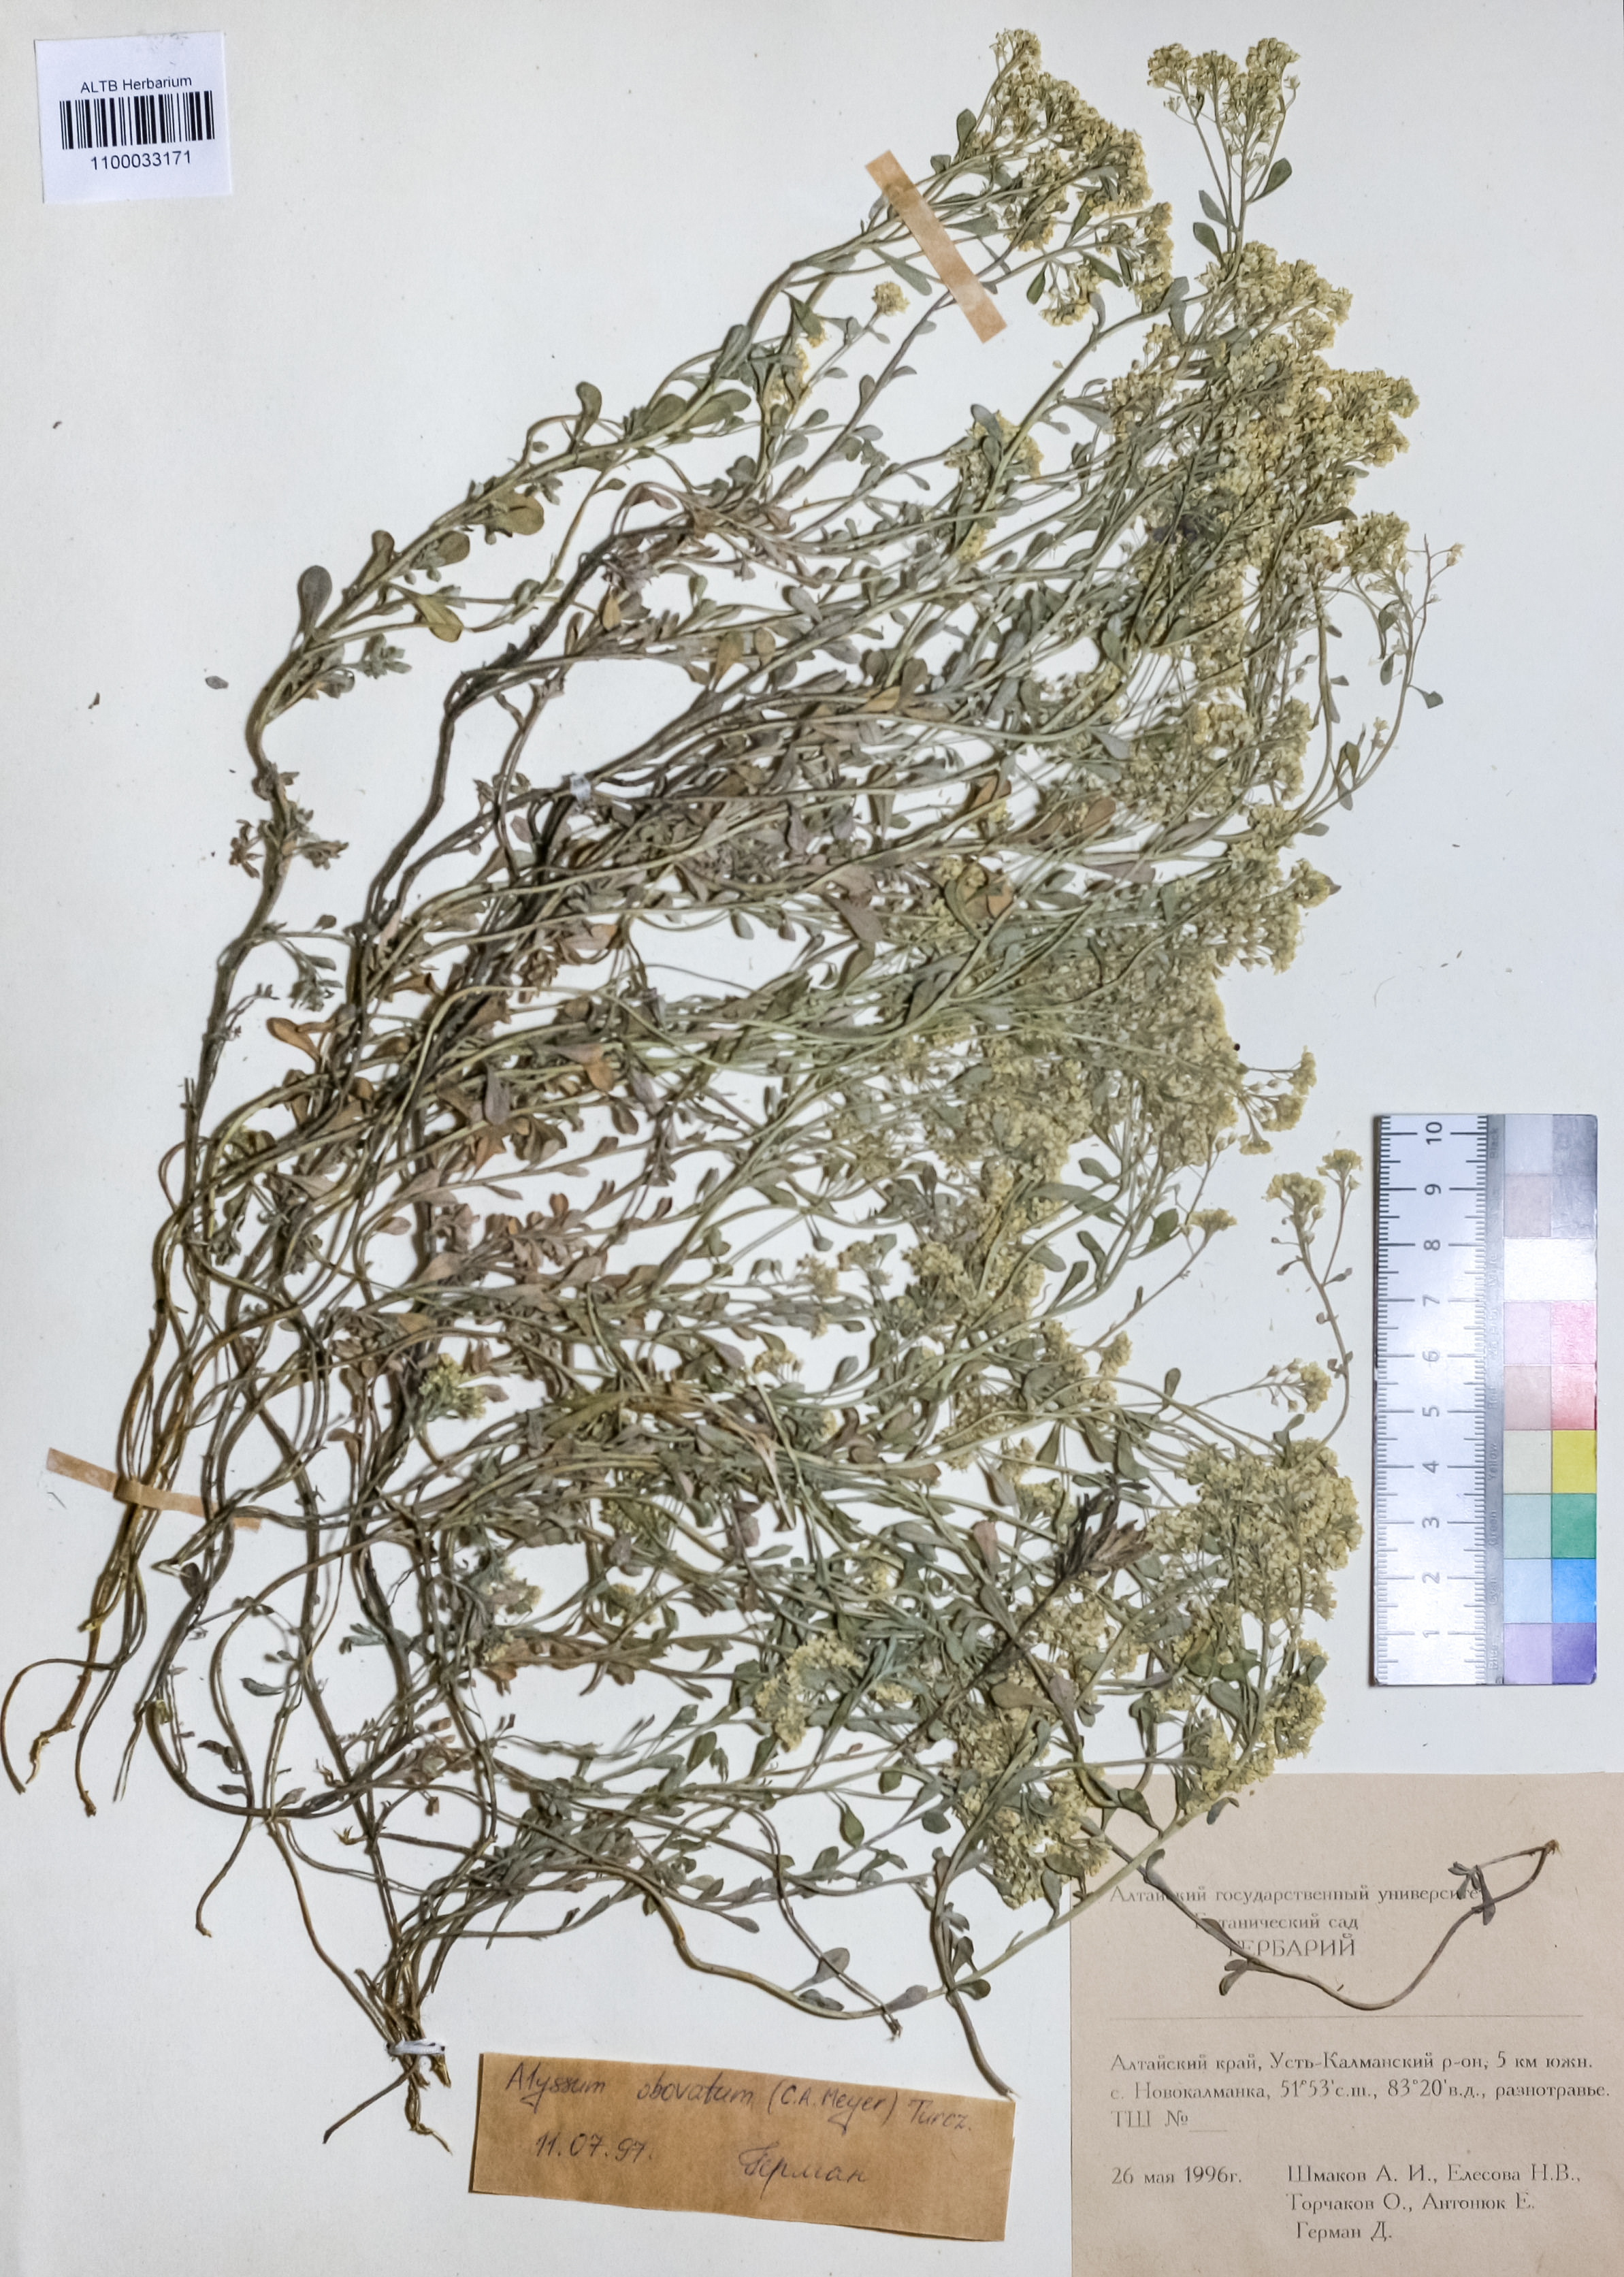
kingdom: Plantae
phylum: Tracheophyta
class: Magnoliopsida
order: Brassicales
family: Brassicaceae
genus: Odontarrhena
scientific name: Odontarrhena obovata
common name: American alyssum
